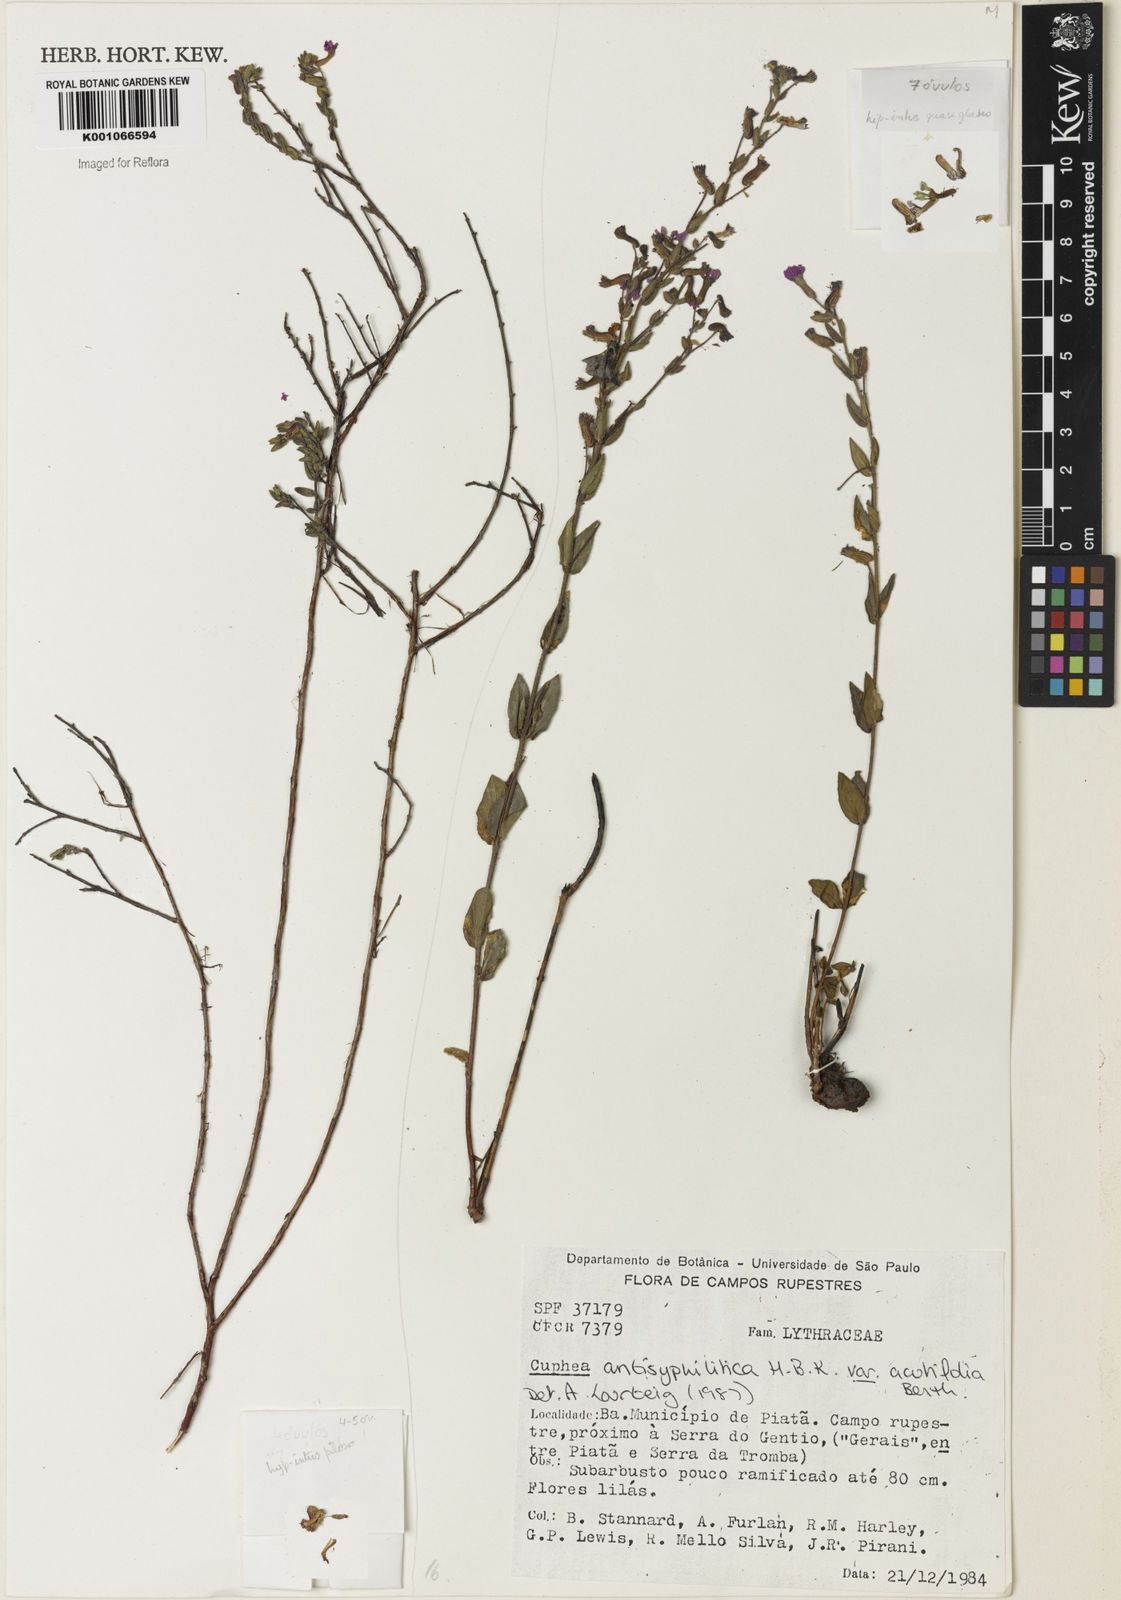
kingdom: Plantae
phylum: Tracheophyta
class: Magnoliopsida
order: Myrtales
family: Lythraceae
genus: Cuphea
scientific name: Cuphea antisyphilitica
